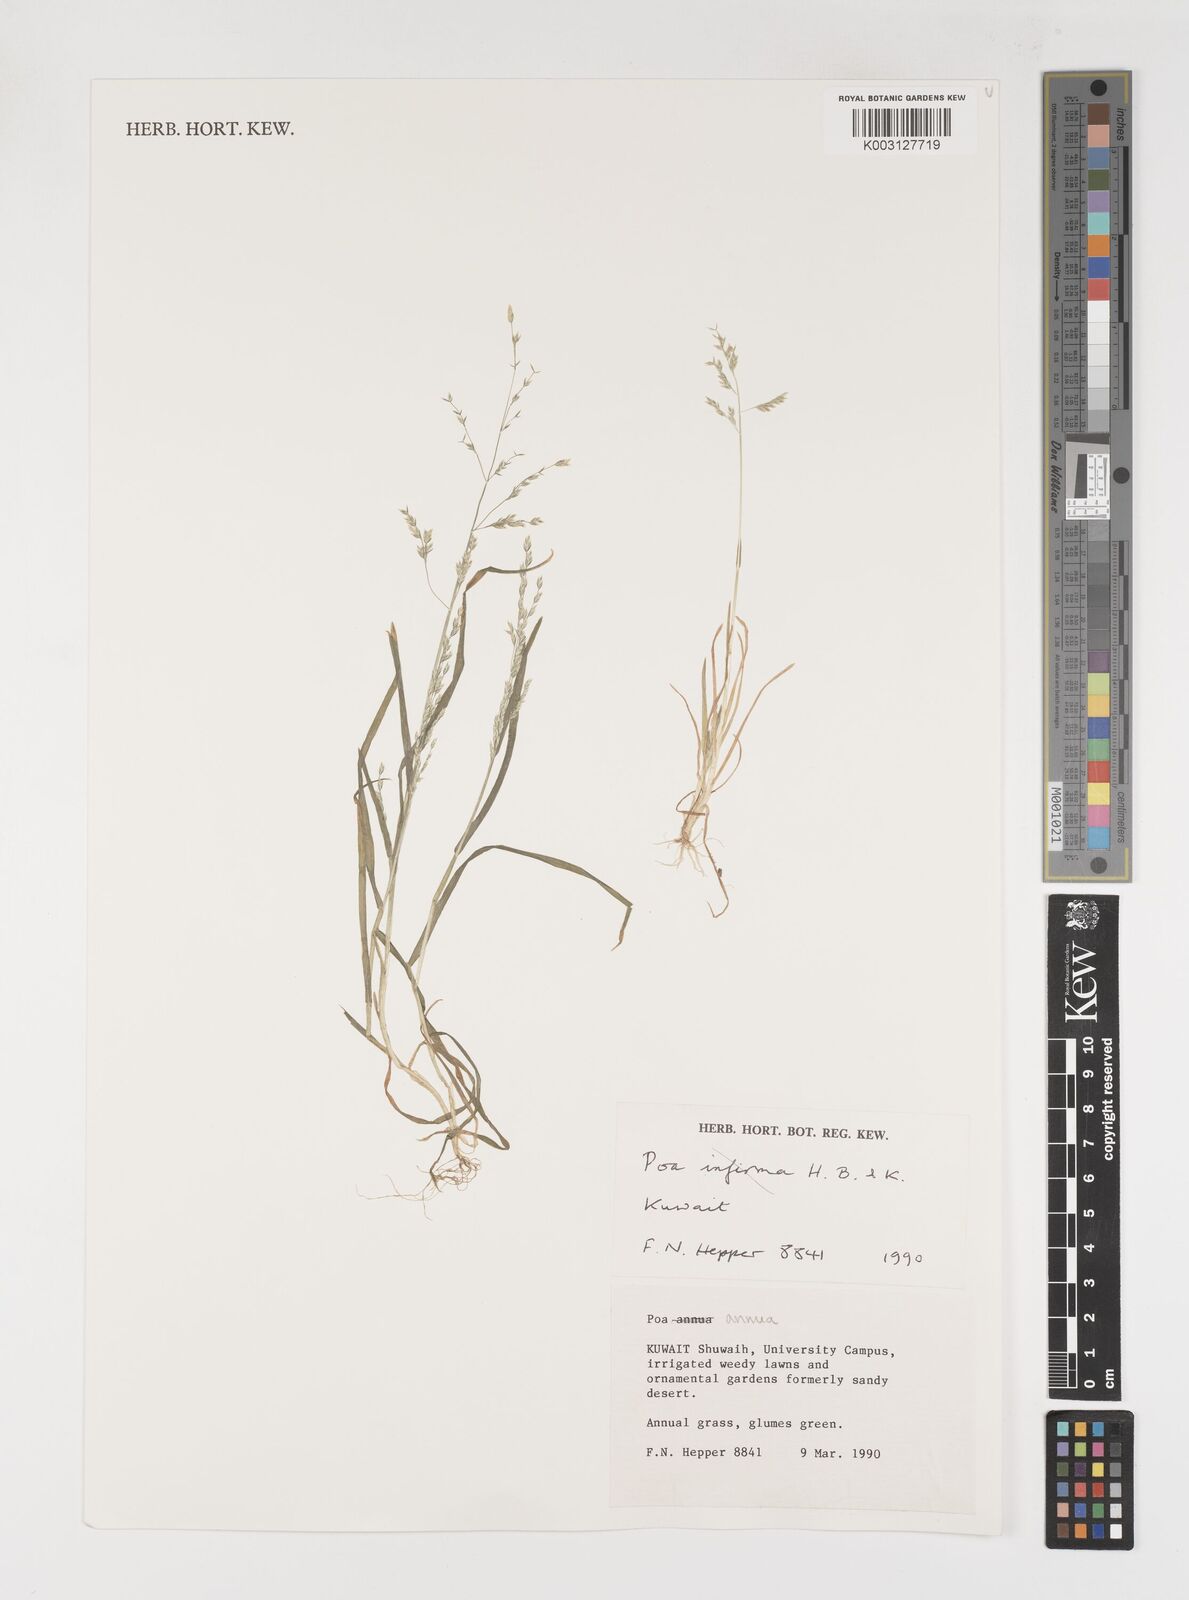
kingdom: Plantae
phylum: Tracheophyta
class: Liliopsida
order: Poales
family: Poaceae
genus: Poa
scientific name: Poa annua
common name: Annual bluegrass
